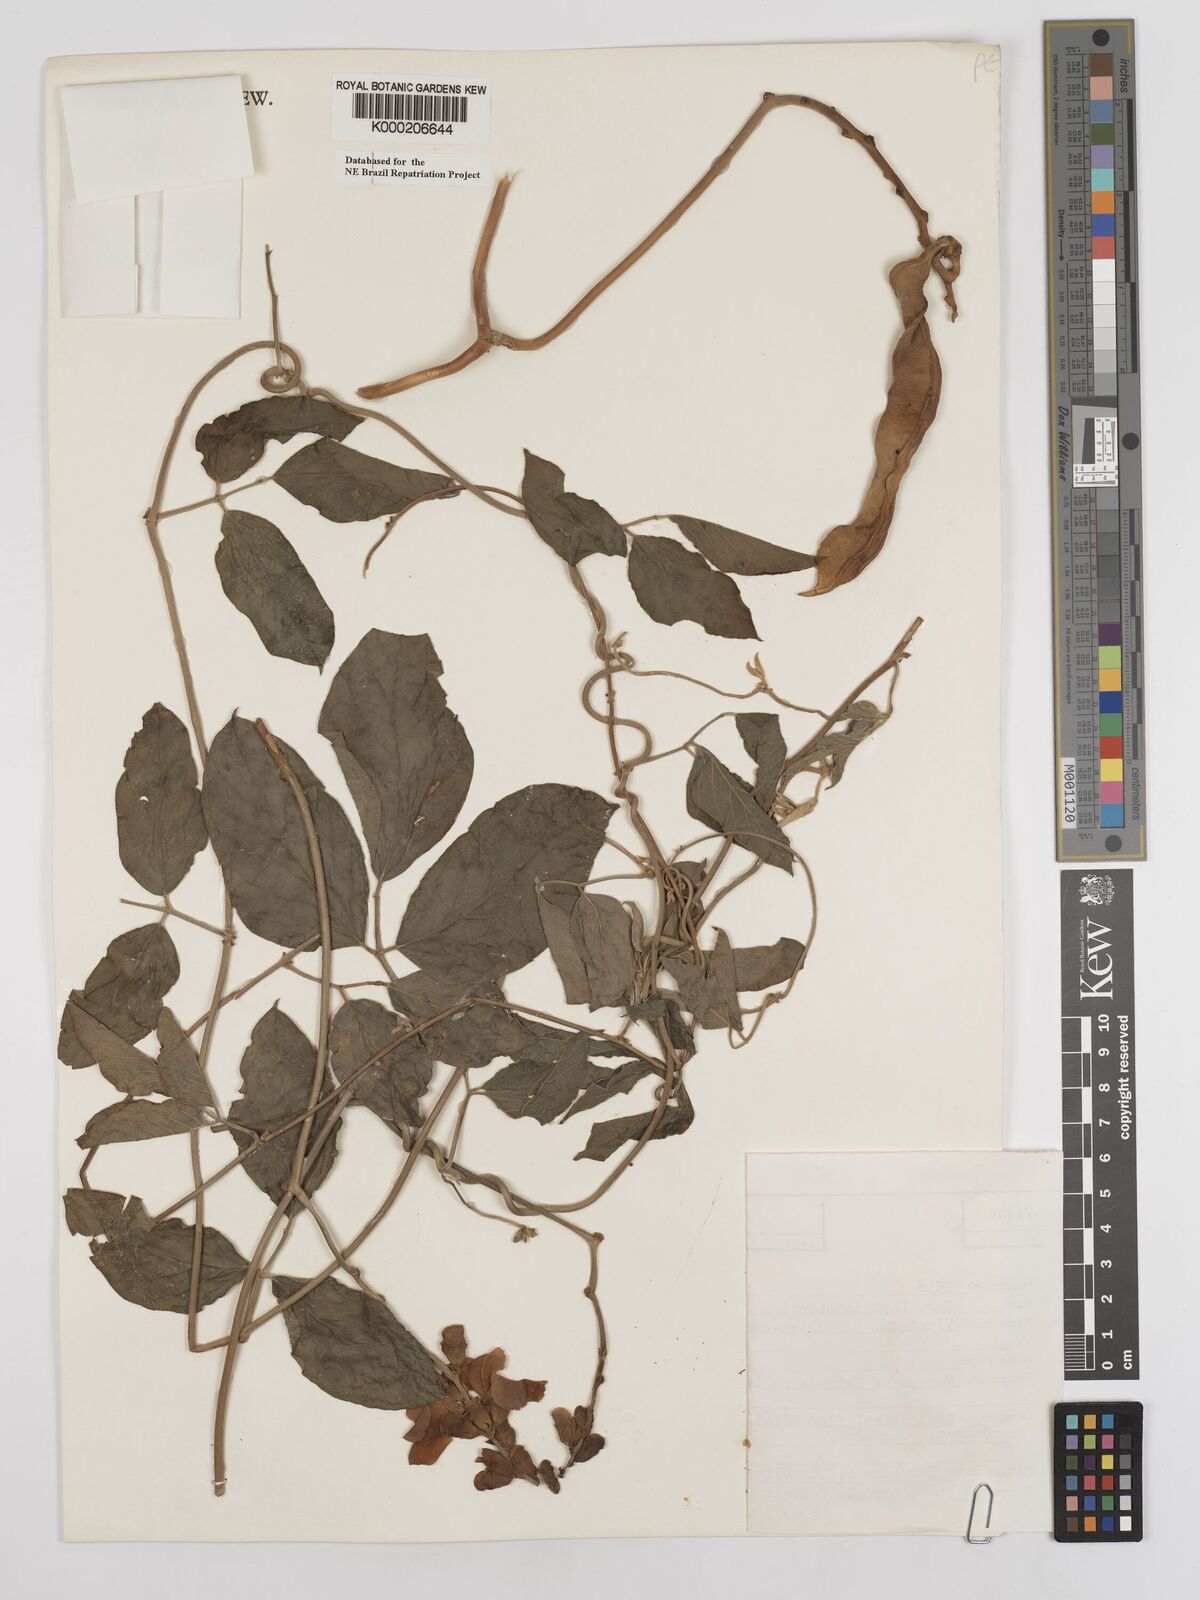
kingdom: Plantae
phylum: Tracheophyta
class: Magnoliopsida
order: Fabales
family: Fabaceae
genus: Canavalia
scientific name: Canavalia brasiliensis
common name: Barbicou-bean
